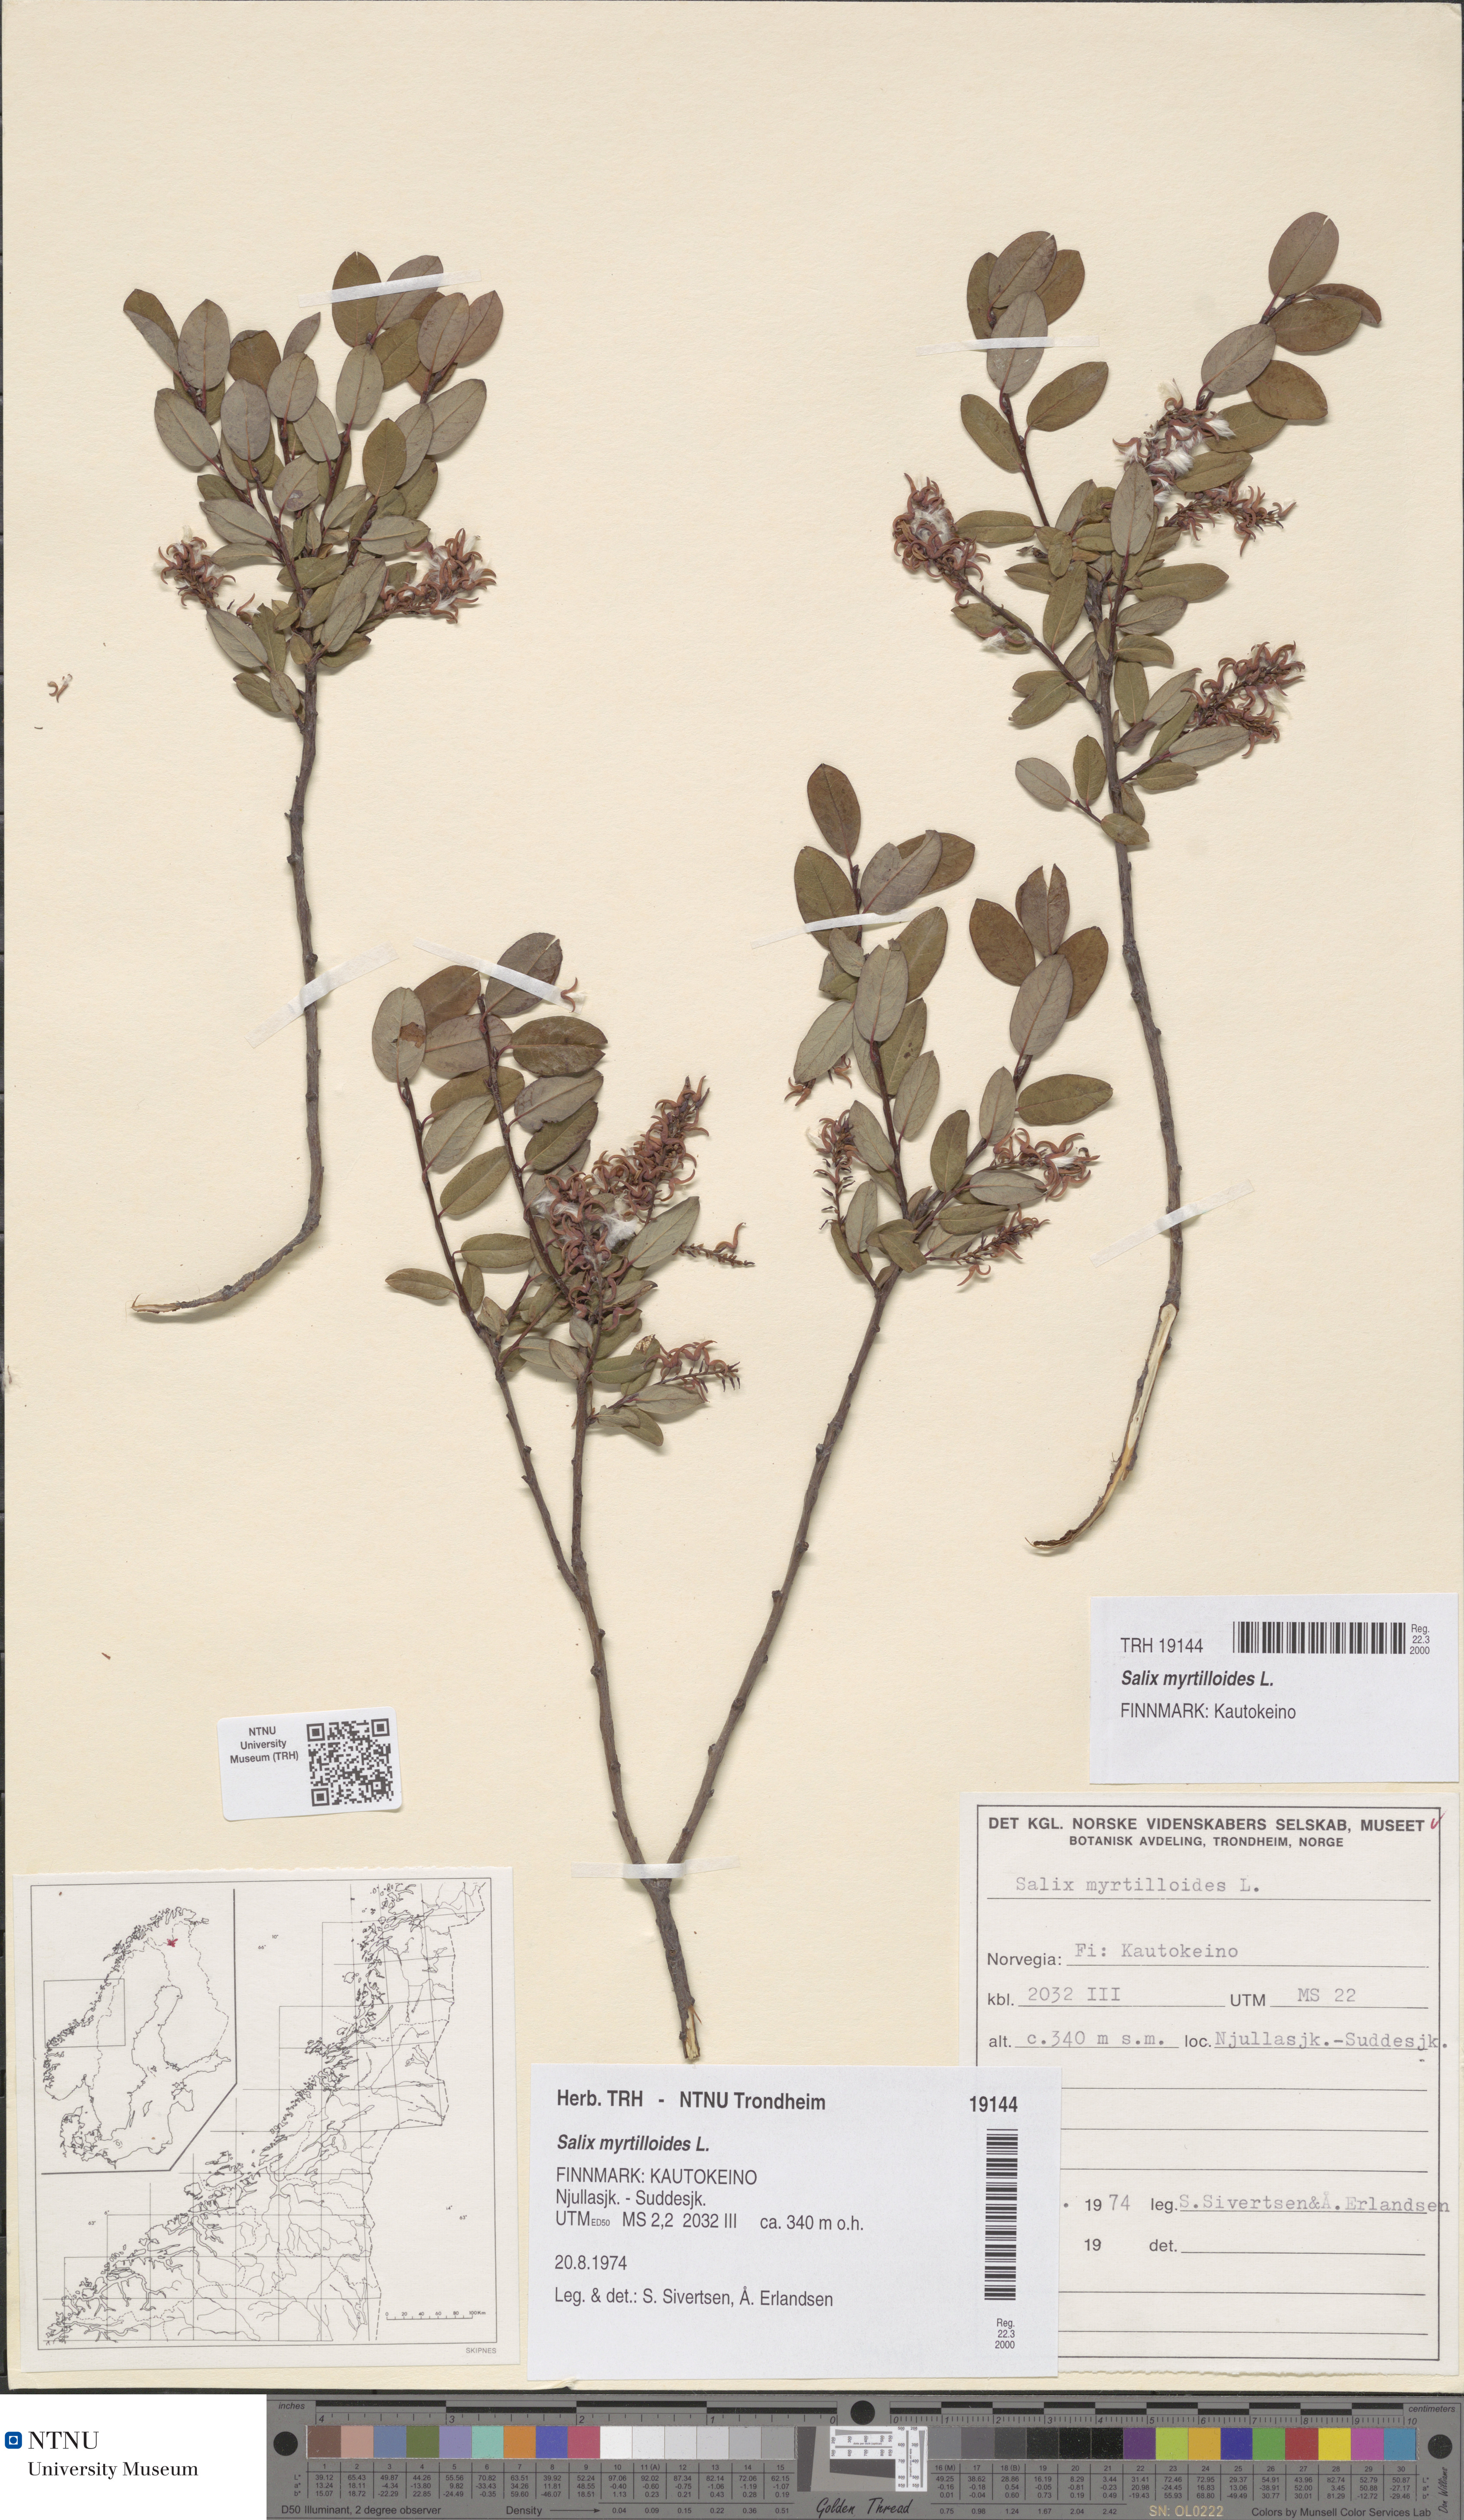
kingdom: Plantae
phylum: Tracheophyta
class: Magnoliopsida
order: Malpighiales
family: Salicaceae
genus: Salix
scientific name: Salix myrtilloides
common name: Myrtle-leaved willow
